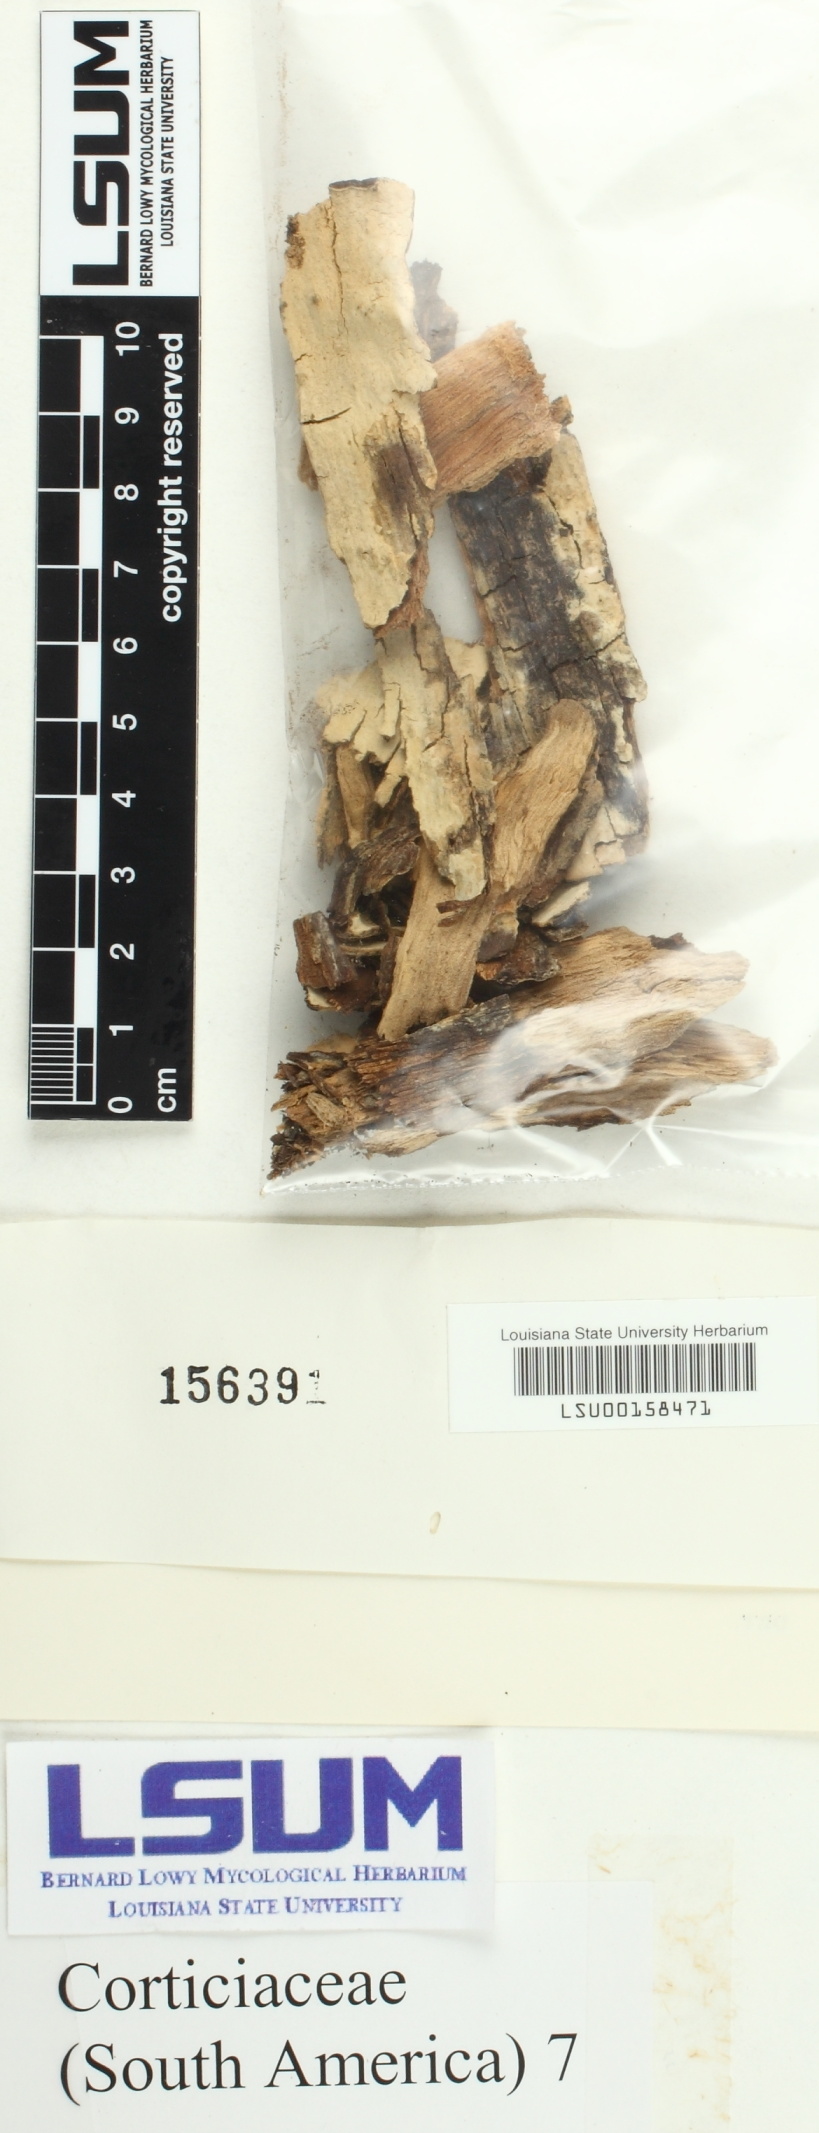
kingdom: Fungi
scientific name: Fungi
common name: Fungi
